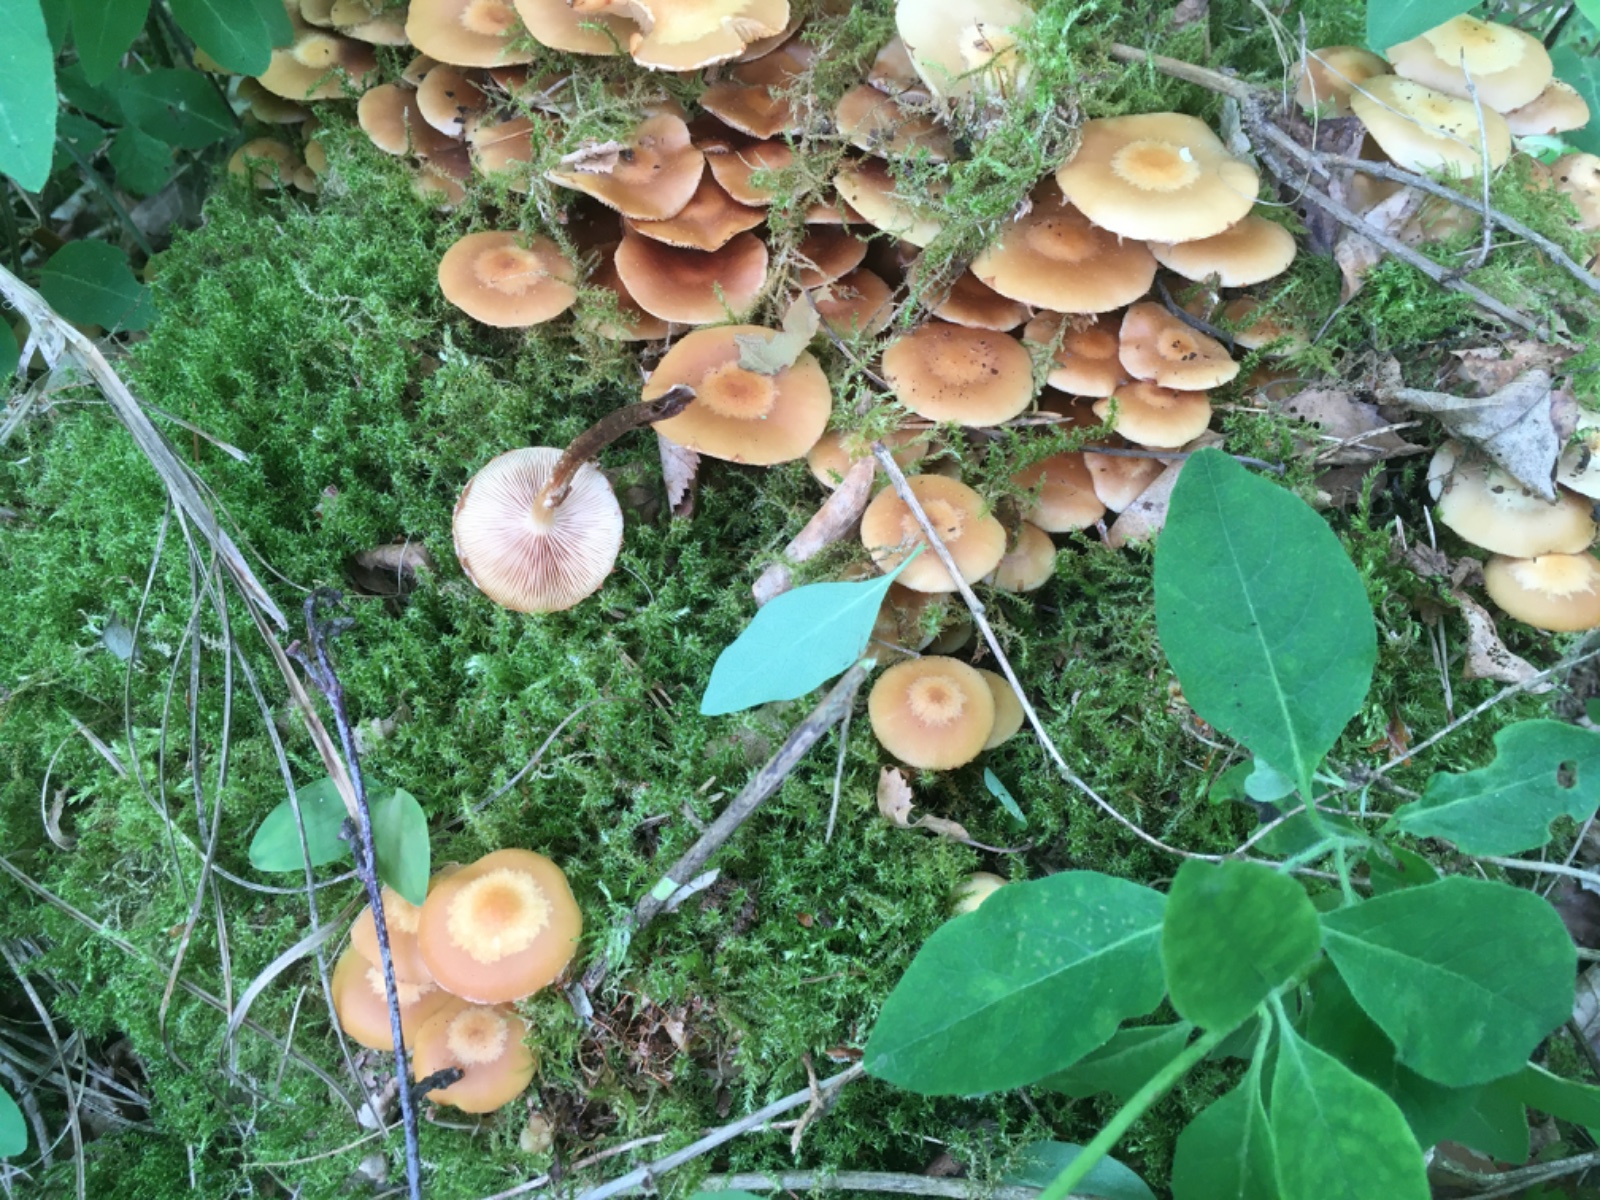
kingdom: Fungi
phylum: Basidiomycota
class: Agaricomycetes
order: Agaricales
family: Strophariaceae
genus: Kuehneromyces
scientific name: Kuehneromyces mutabilis
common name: foranderlig skælhat
